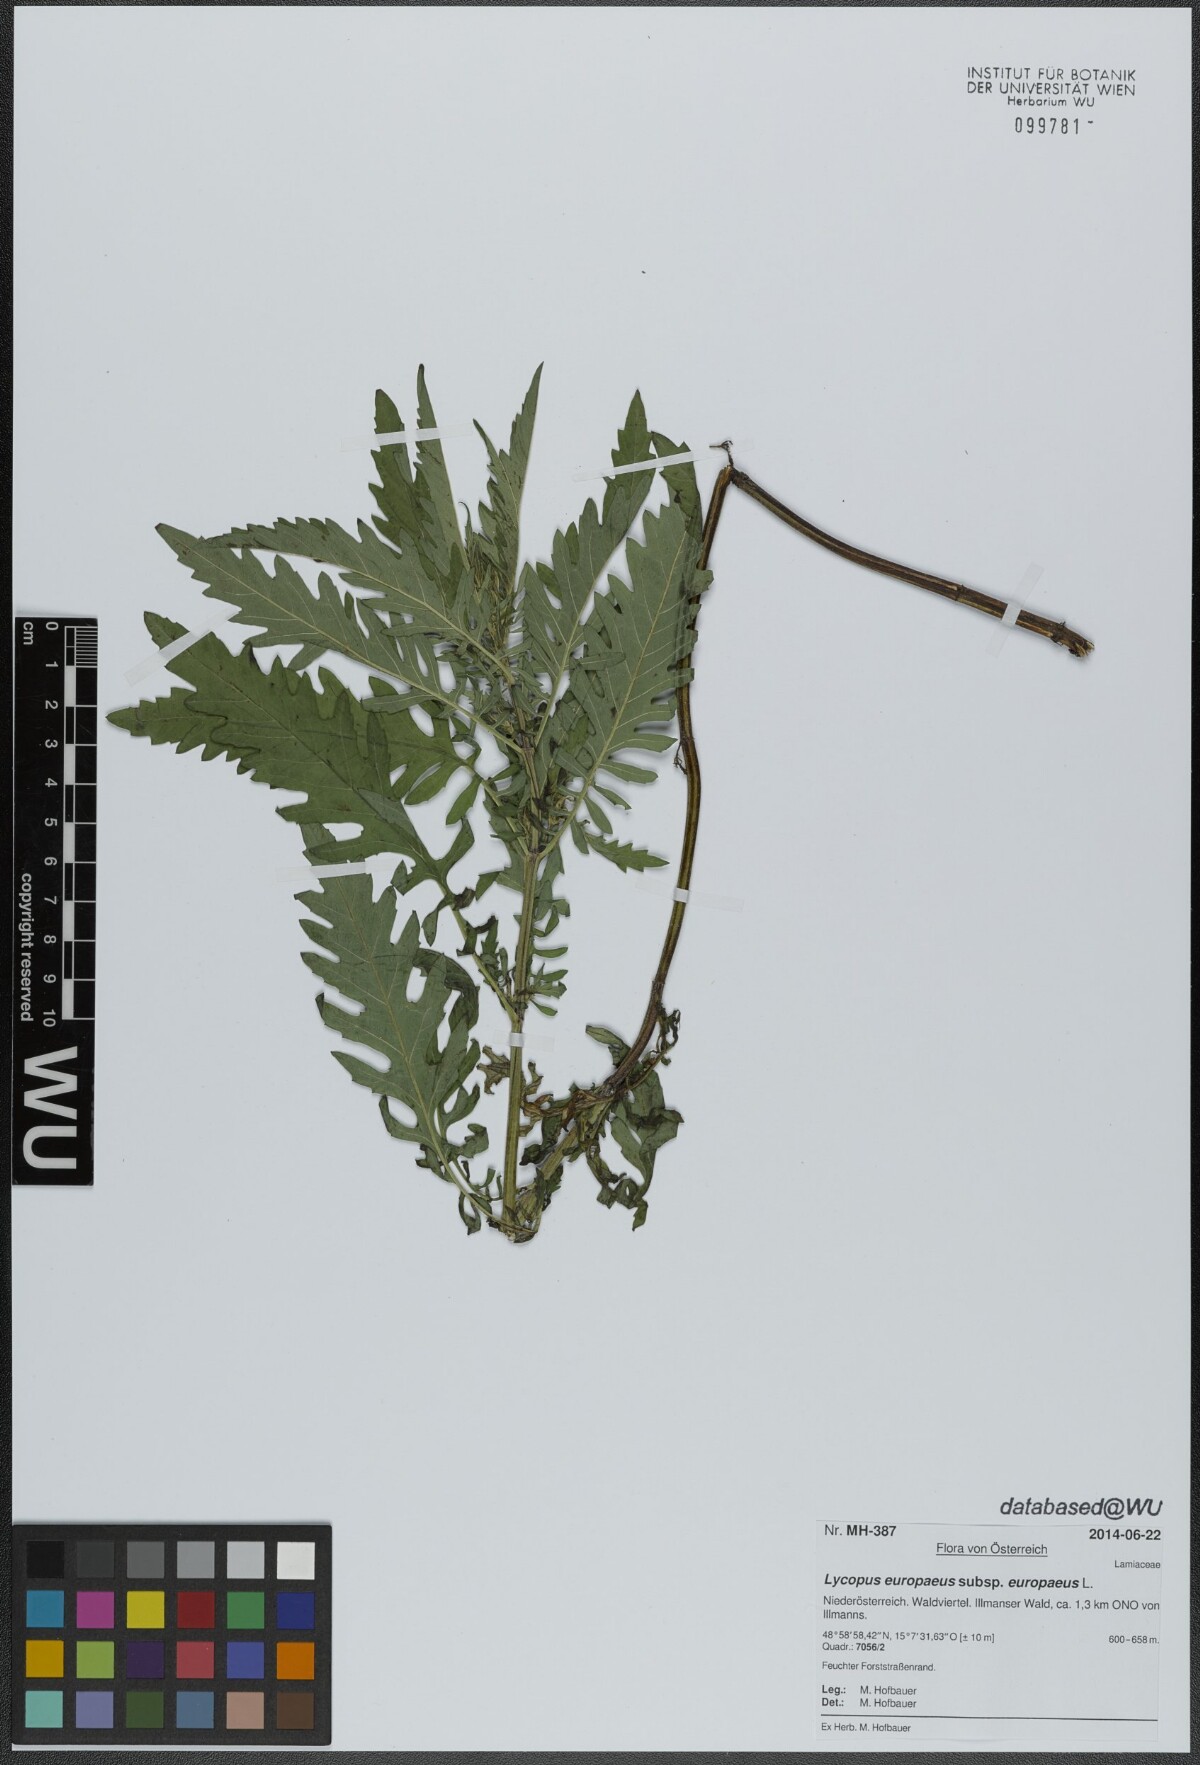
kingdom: Plantae
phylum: Tracheophyta
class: Magnoliopsida
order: Lamiales
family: Lamiaceae
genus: Lycopus
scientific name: Lycopus europaeus
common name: European bugleweed
